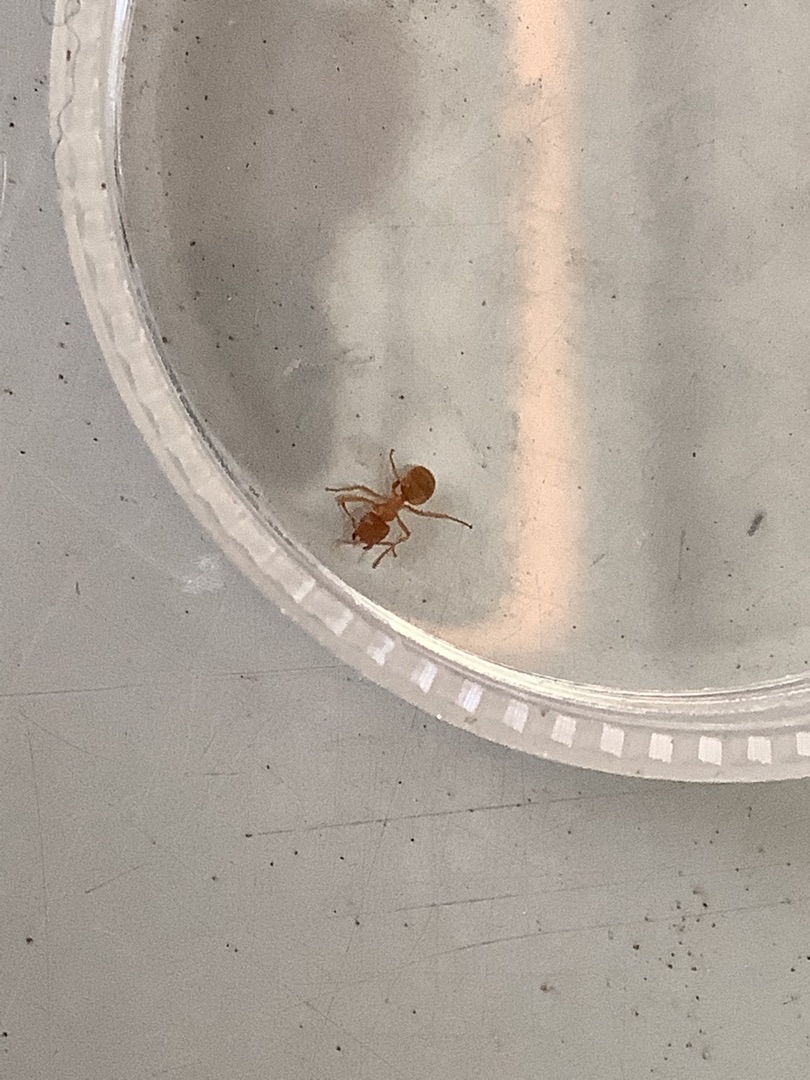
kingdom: Animalia
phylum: Arthropoda
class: Insecta
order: Hymenoptera
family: Formicidae
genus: Lasius
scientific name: Lasius
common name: Jordmyrer
